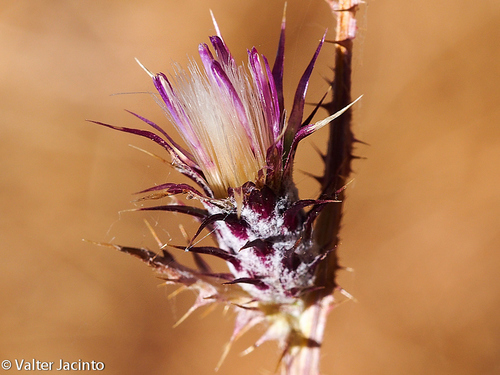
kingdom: Plantae
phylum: Tracheophyta
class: Magnoliopsida
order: Asterales
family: Asteraceae
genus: Carduus
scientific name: Carduus tenuiflorus
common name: Slender thistle
